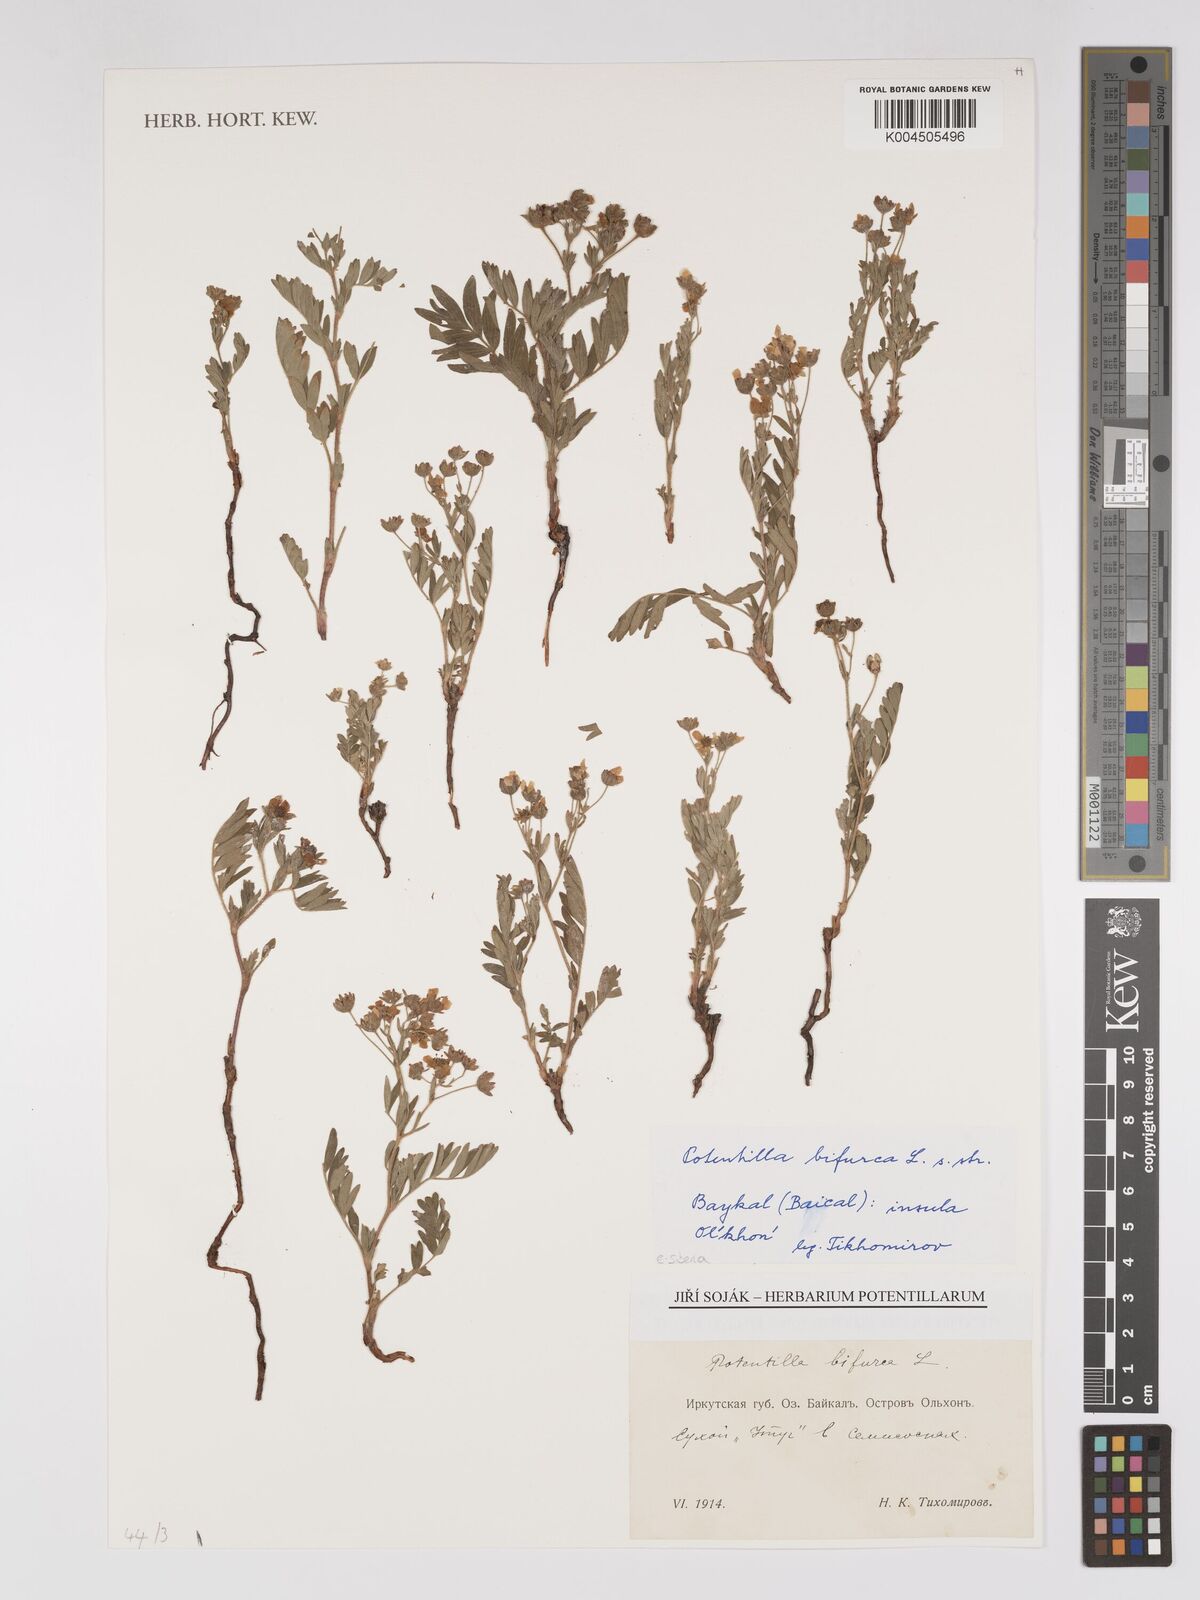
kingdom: Plantae
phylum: Tracheophyta
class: Magnoliopsida
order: Rosales
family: Rosaceae
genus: Sibbaldianthe
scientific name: Sibbaldianthe bifurca
